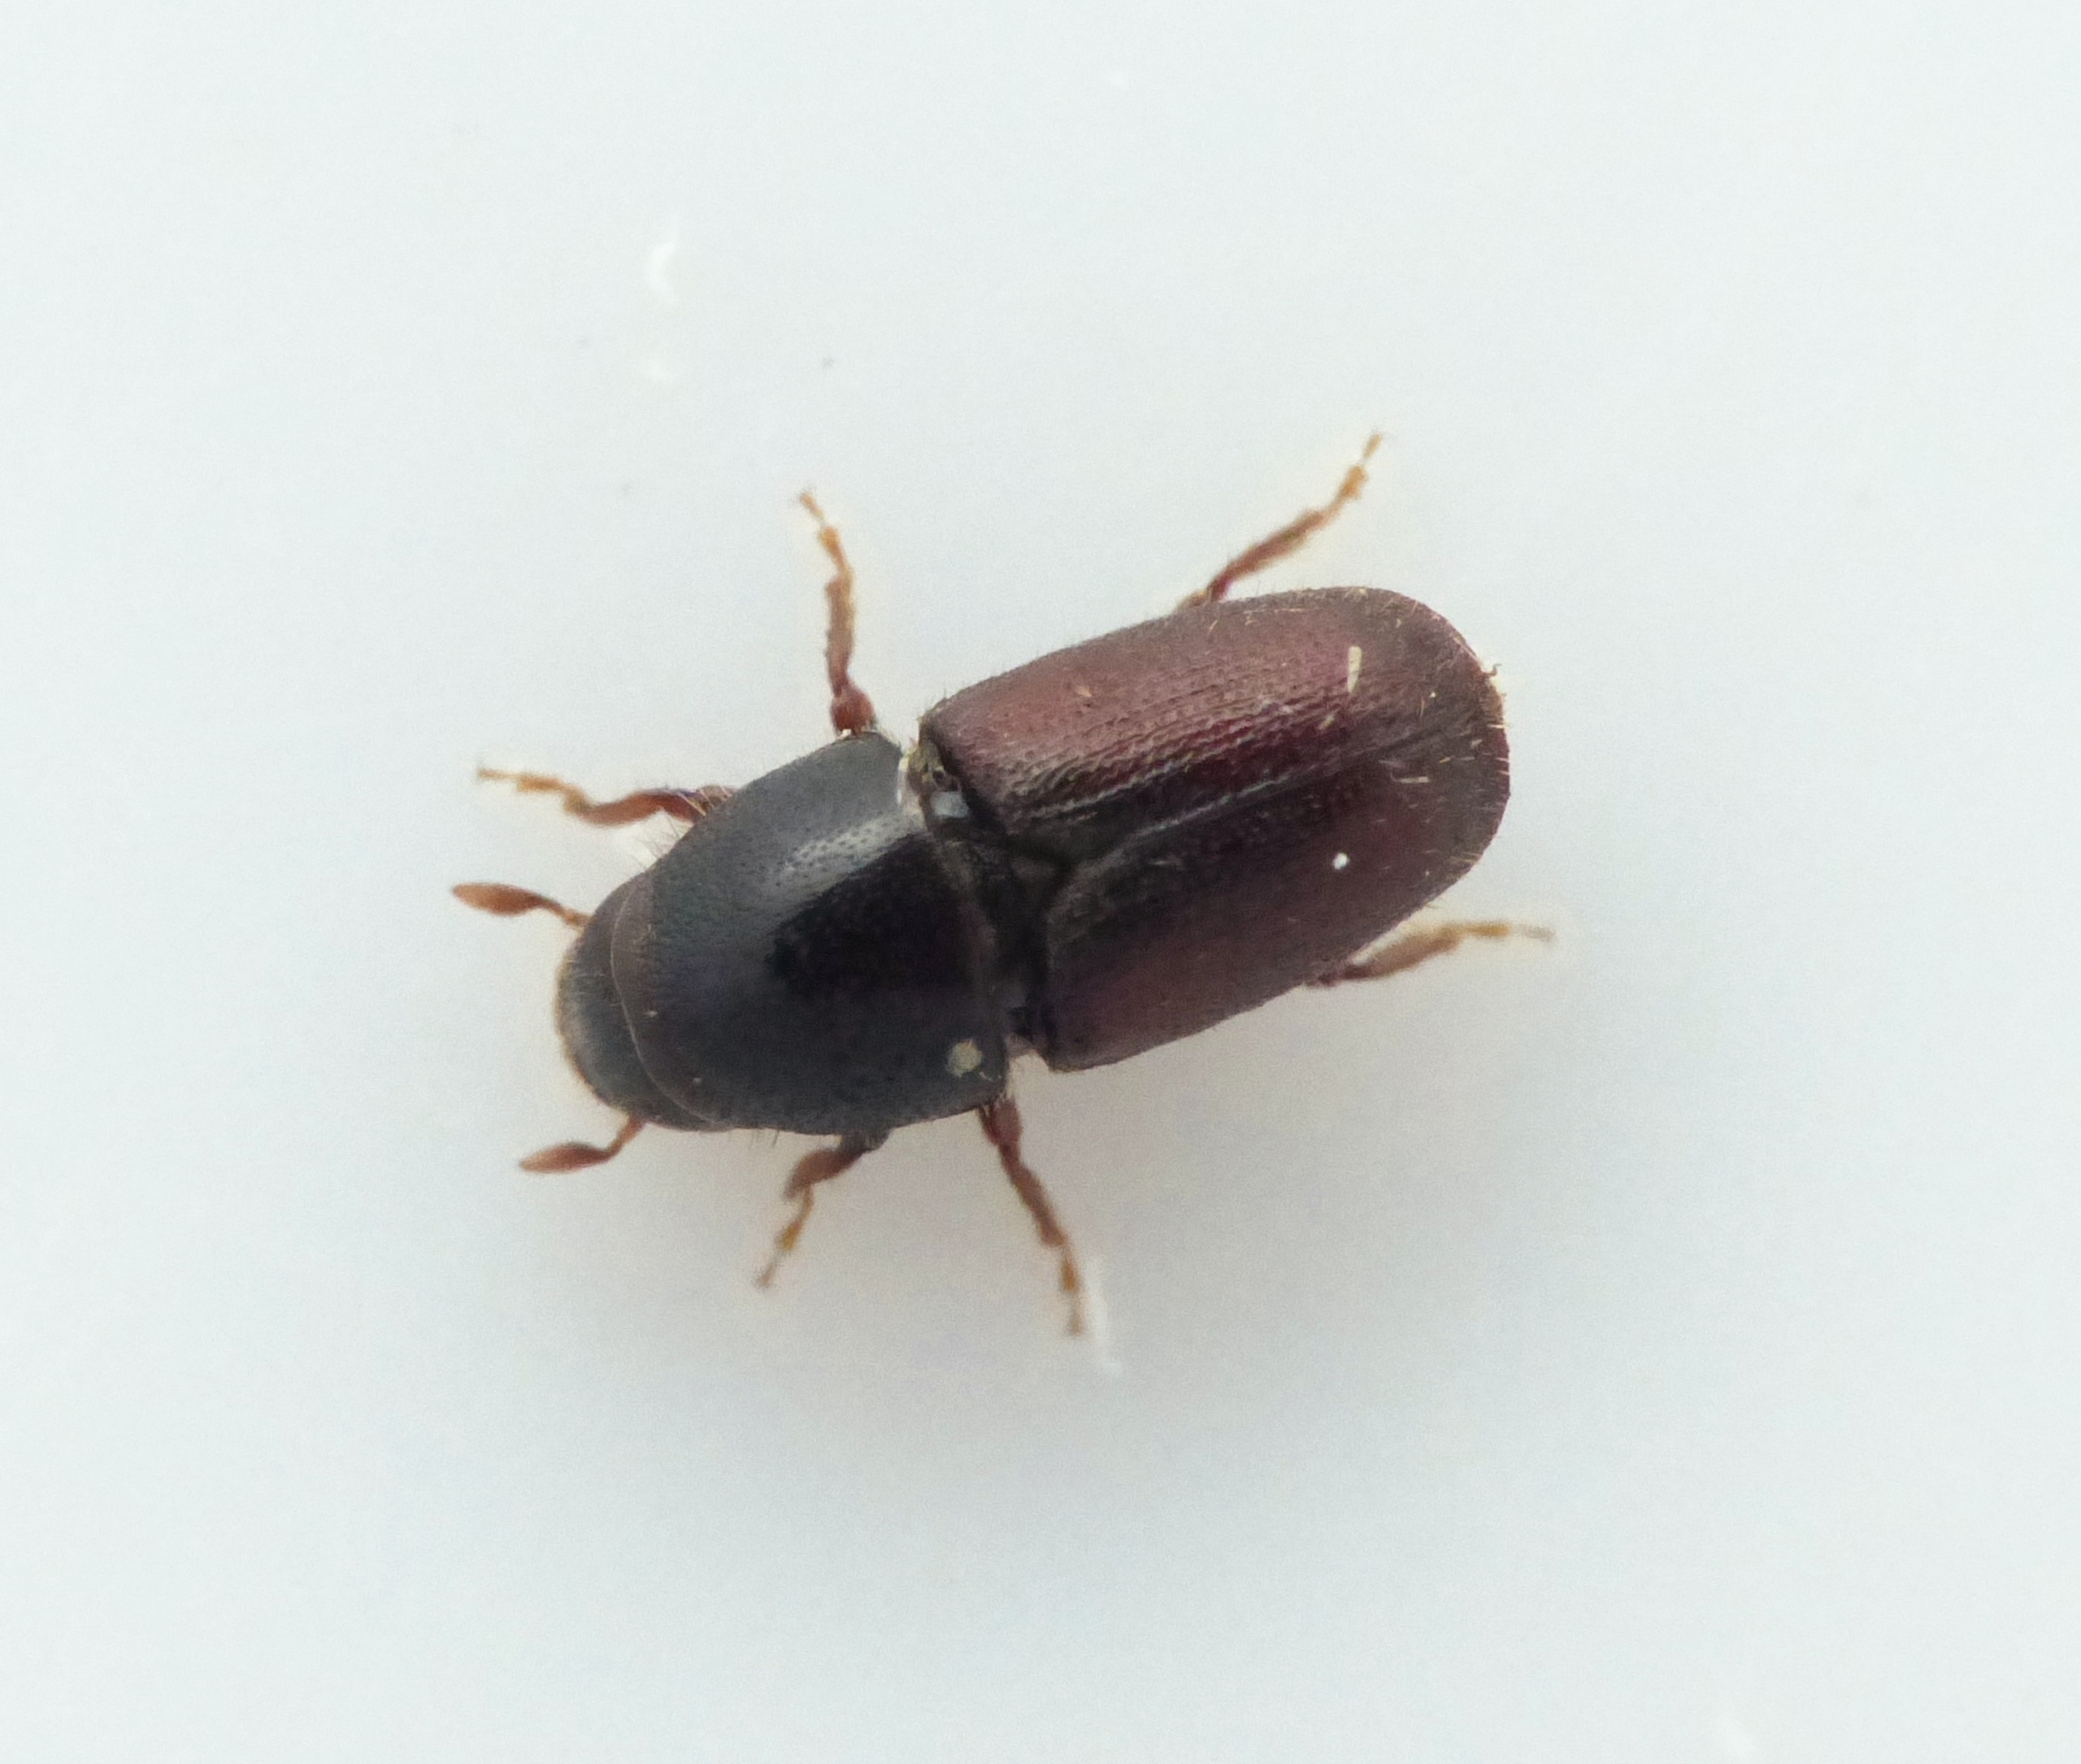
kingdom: Animalia
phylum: Arthropoda
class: Insecta
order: Coleoptera
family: Curculionidae
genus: Scolytus
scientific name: Scolytus intricatus
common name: Egebarkbille
